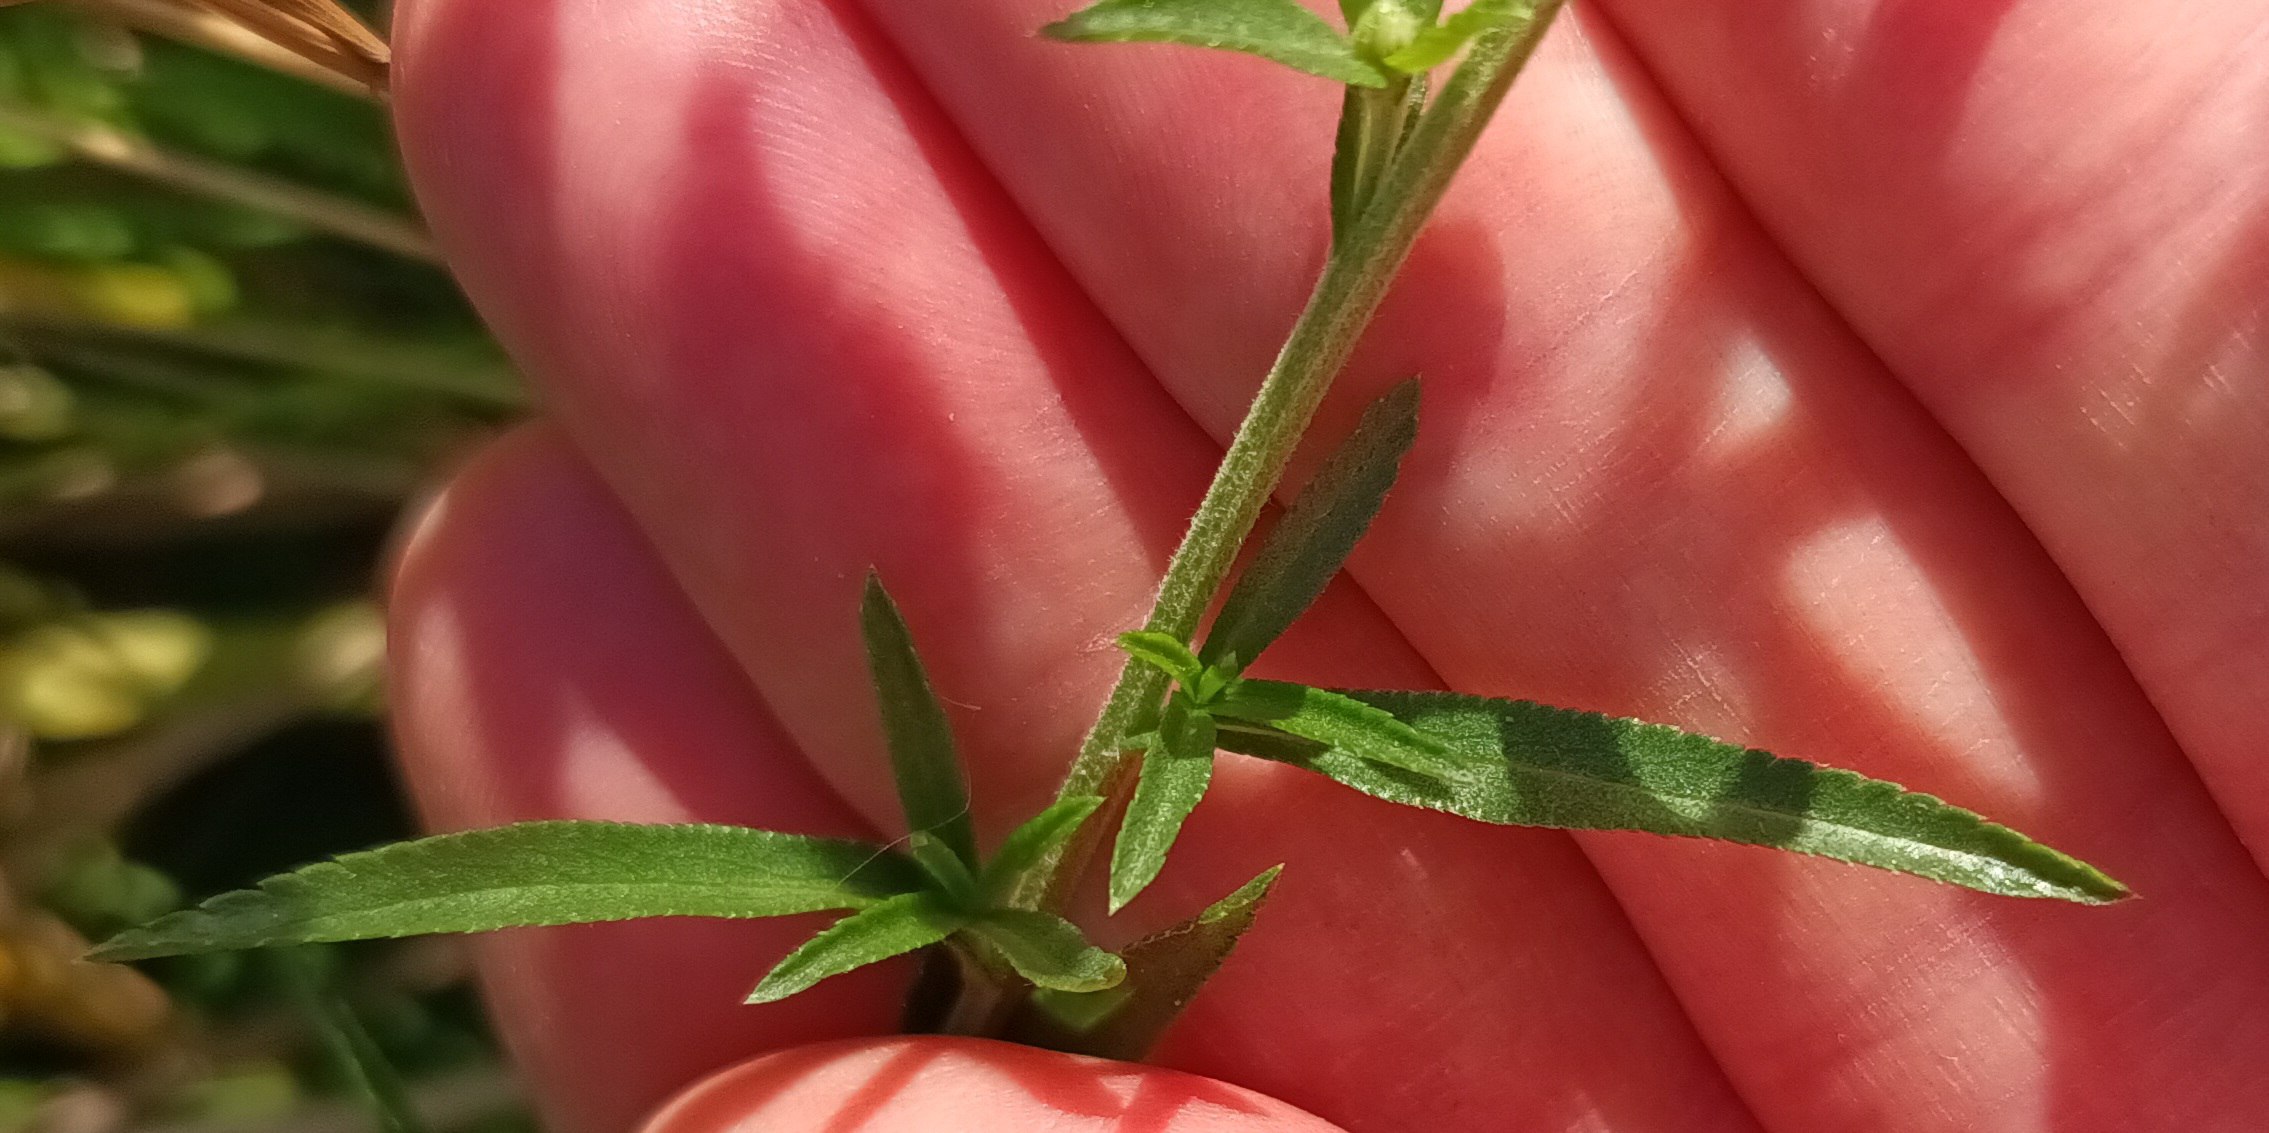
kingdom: Plantae
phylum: Tracheophyta
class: Magnoliopsida
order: Asterales
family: Asteraceae
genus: Achillea
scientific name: Achillea ptarmica
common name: Nyse-røllike
